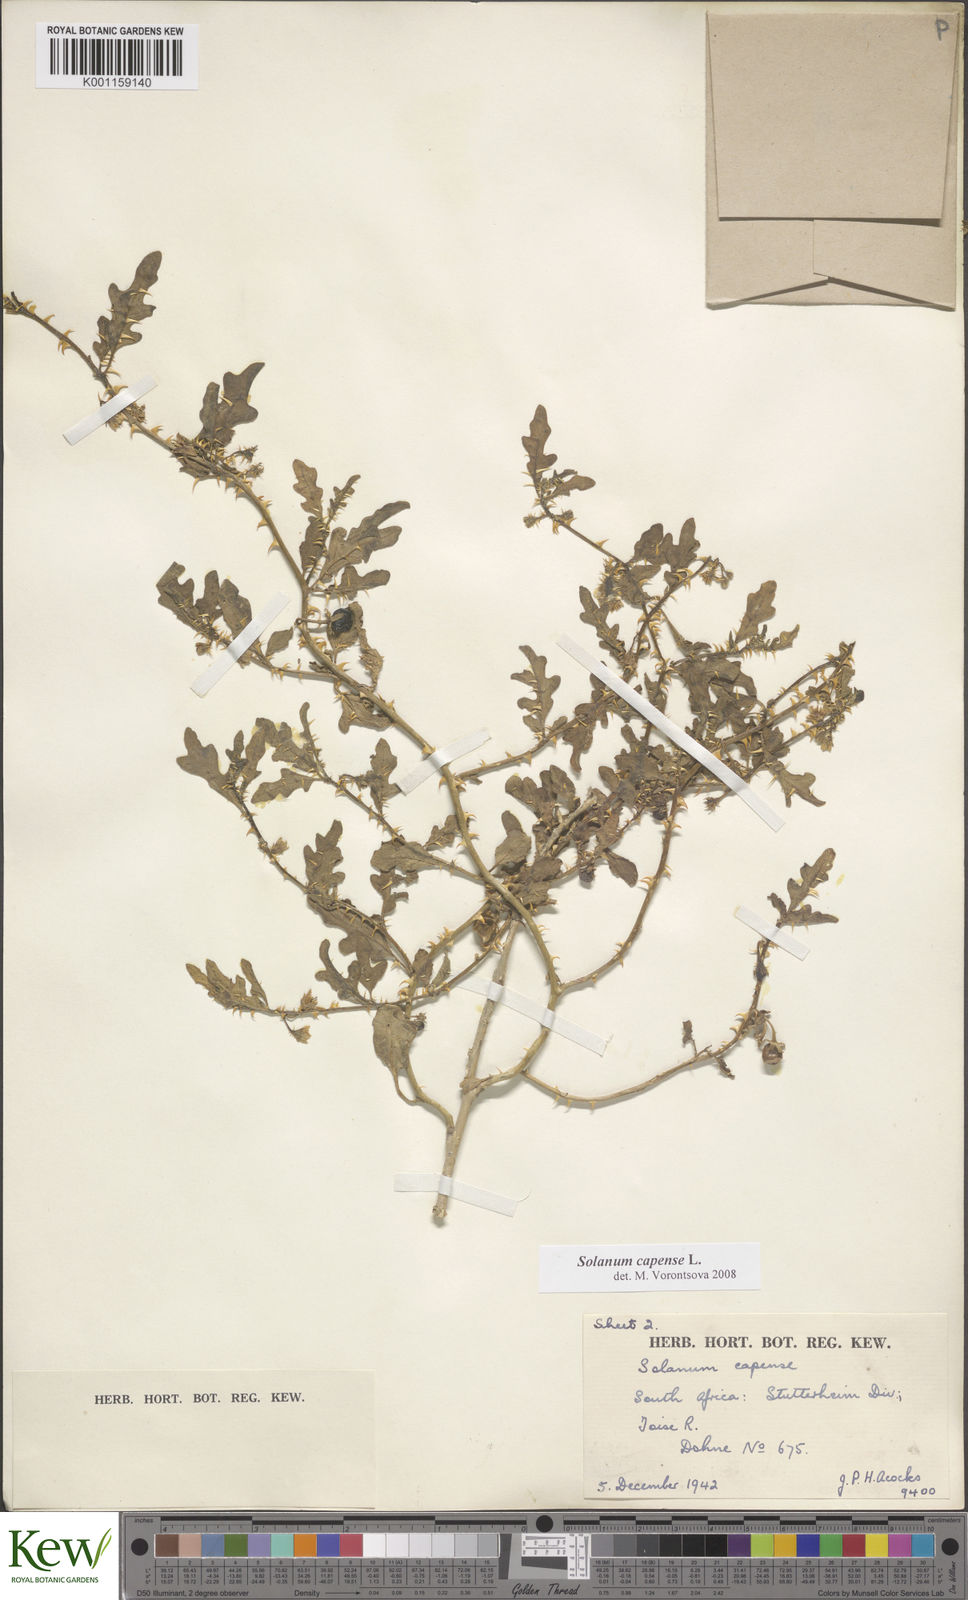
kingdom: Plantae
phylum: Tracheophyta
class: Magnoliopsida
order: Solanales
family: Solanaceae
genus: Solanum
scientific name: Solanum capense
